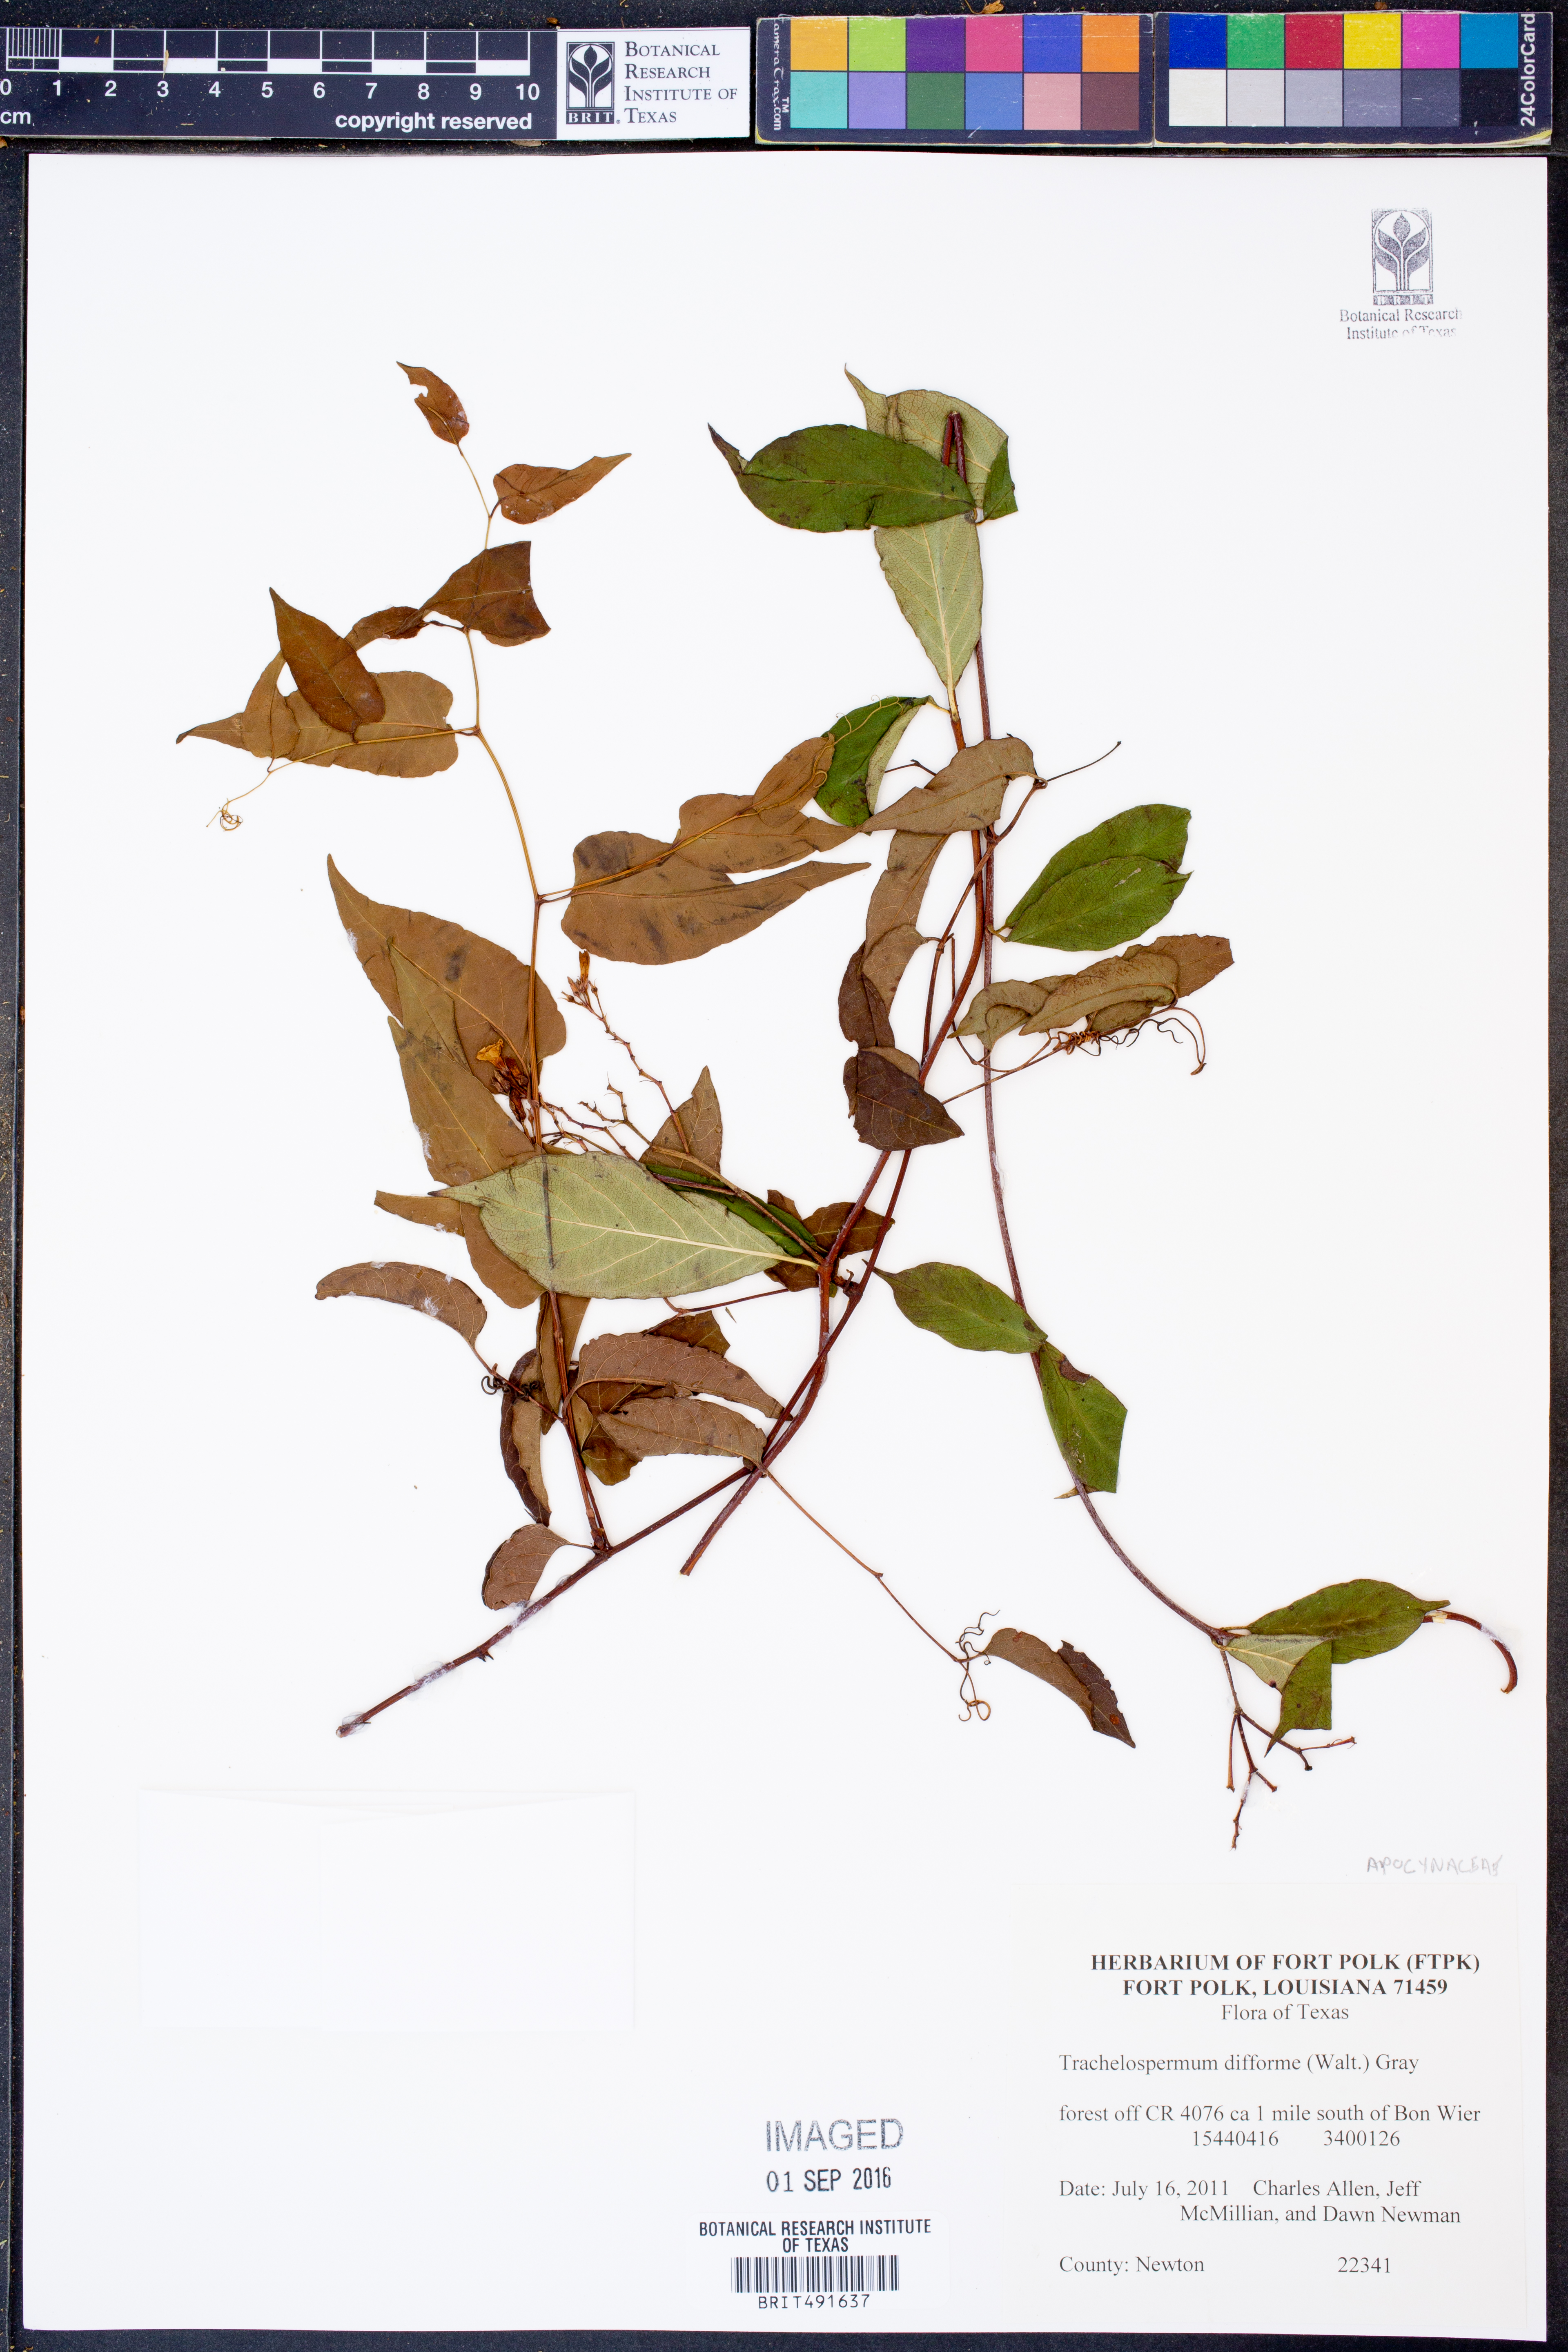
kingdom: Plantae
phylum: Tracheophyta
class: Magnoliopsida
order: Gentianales
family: Apocynaceae
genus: Thyrsanthella
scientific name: Thyrsanthella difformis
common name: Climbing dogbane
